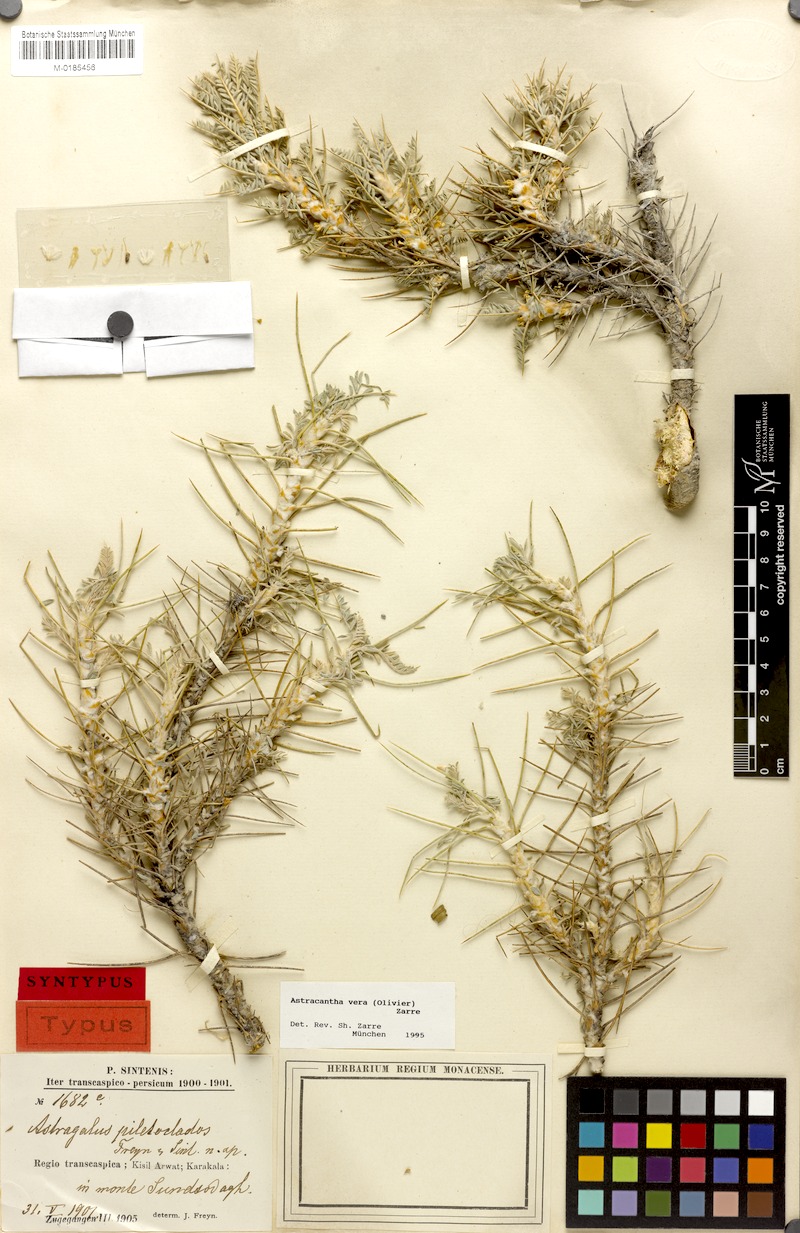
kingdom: Plantae
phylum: Tracheophyta
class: Magnoliopsida
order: Fabales
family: Fabaceae
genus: Astragalus
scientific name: Astragalus verus
